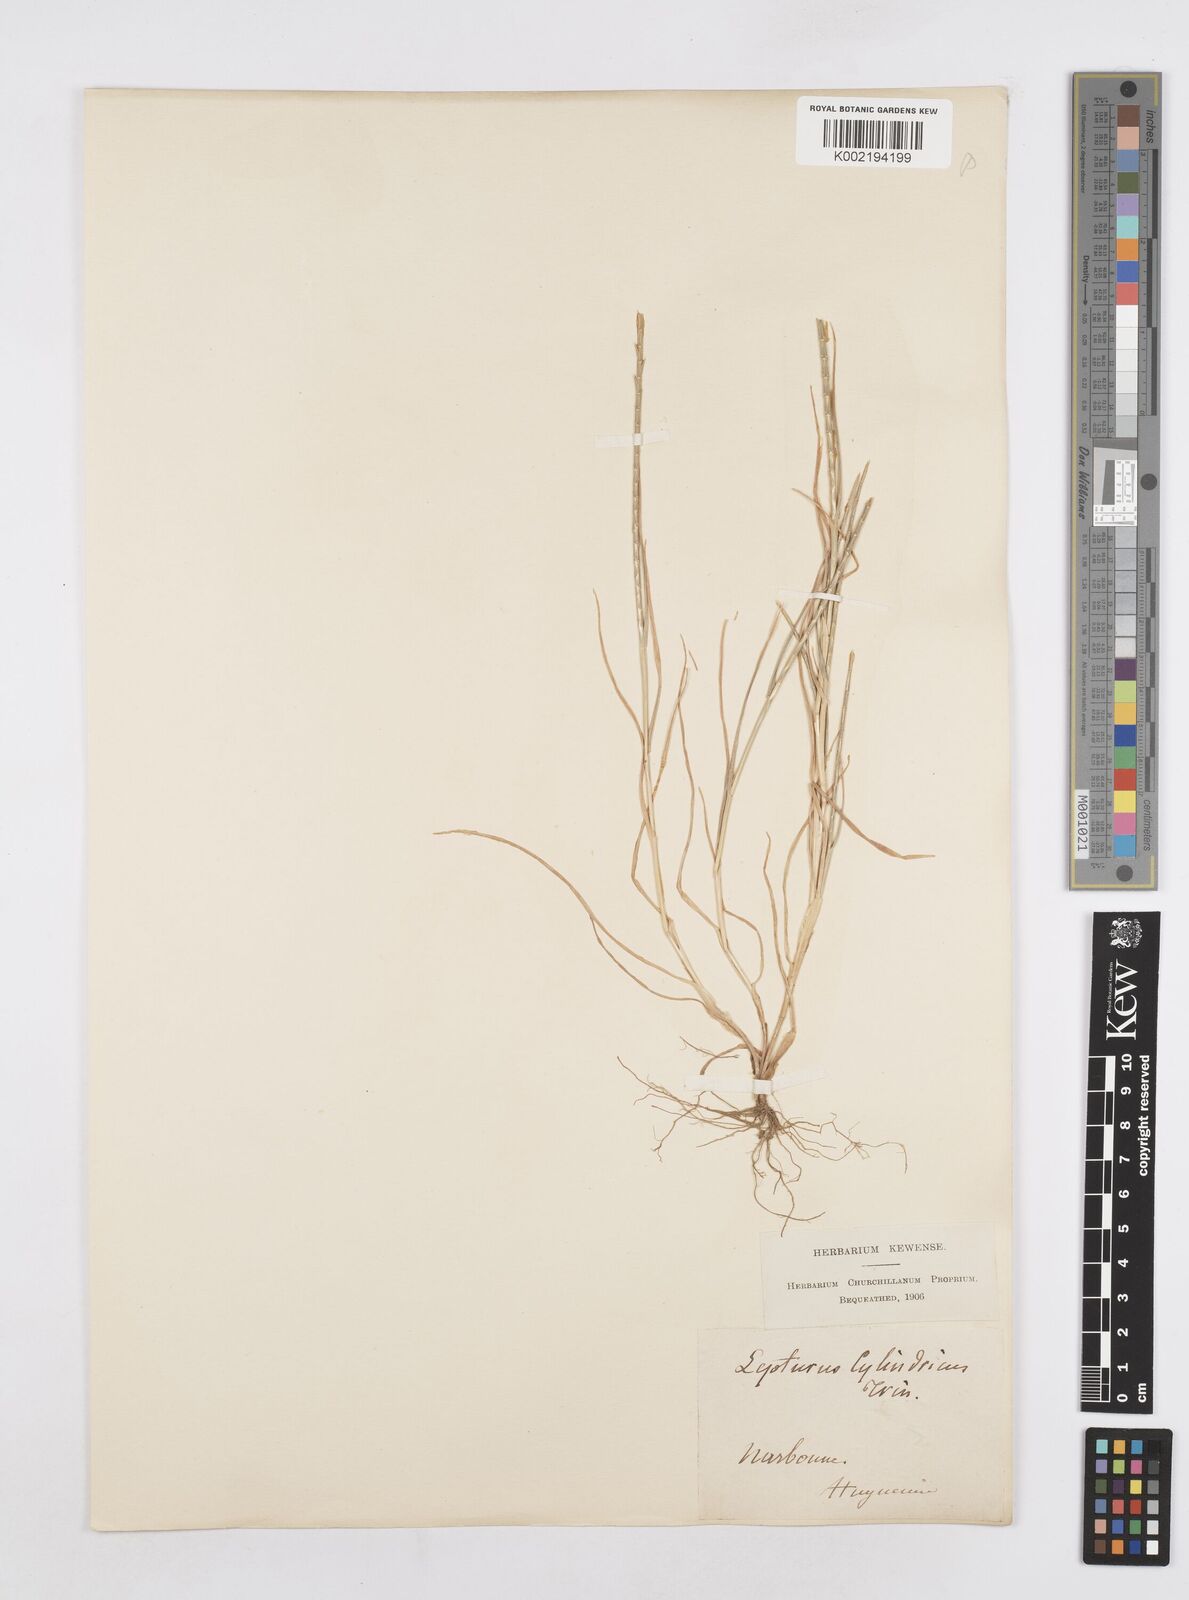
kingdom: Plantae
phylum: Tracheophyta
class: Liliopsida
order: Poales
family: Poaceae
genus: Parapholis
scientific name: Parapholis cylindrica
